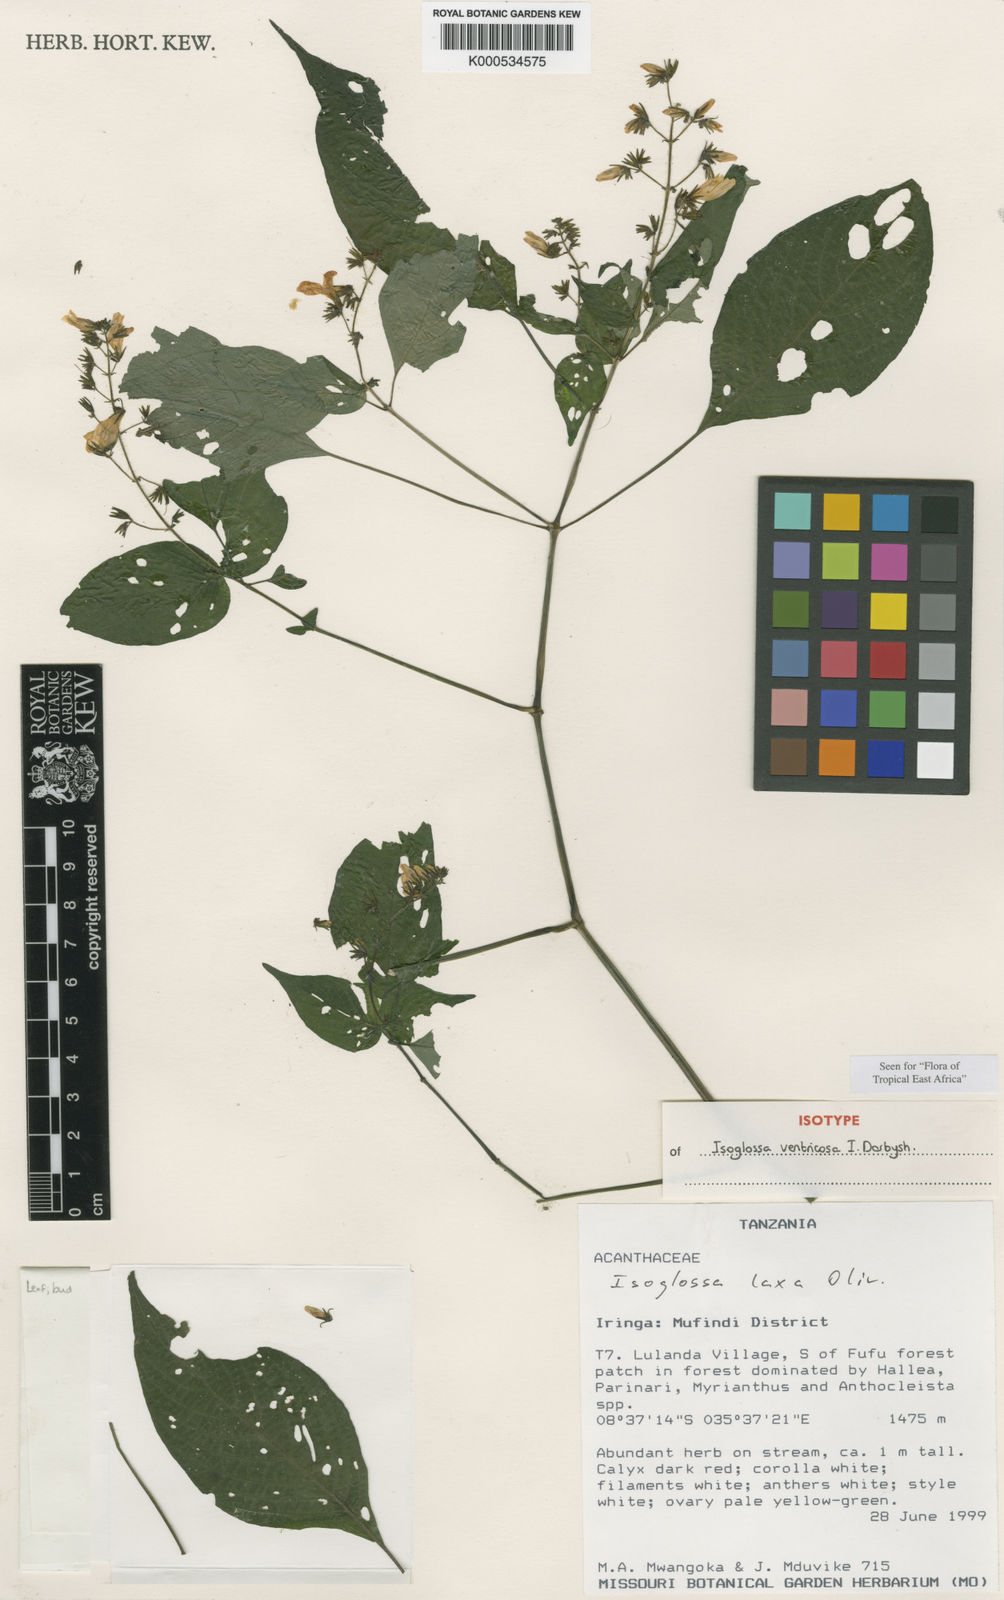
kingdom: Plantae
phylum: Tracheophyta
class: Magnoliopsida
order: Lamiales
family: Acanthaceae
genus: Isoglossa
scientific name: Isoglossa ventricosa
